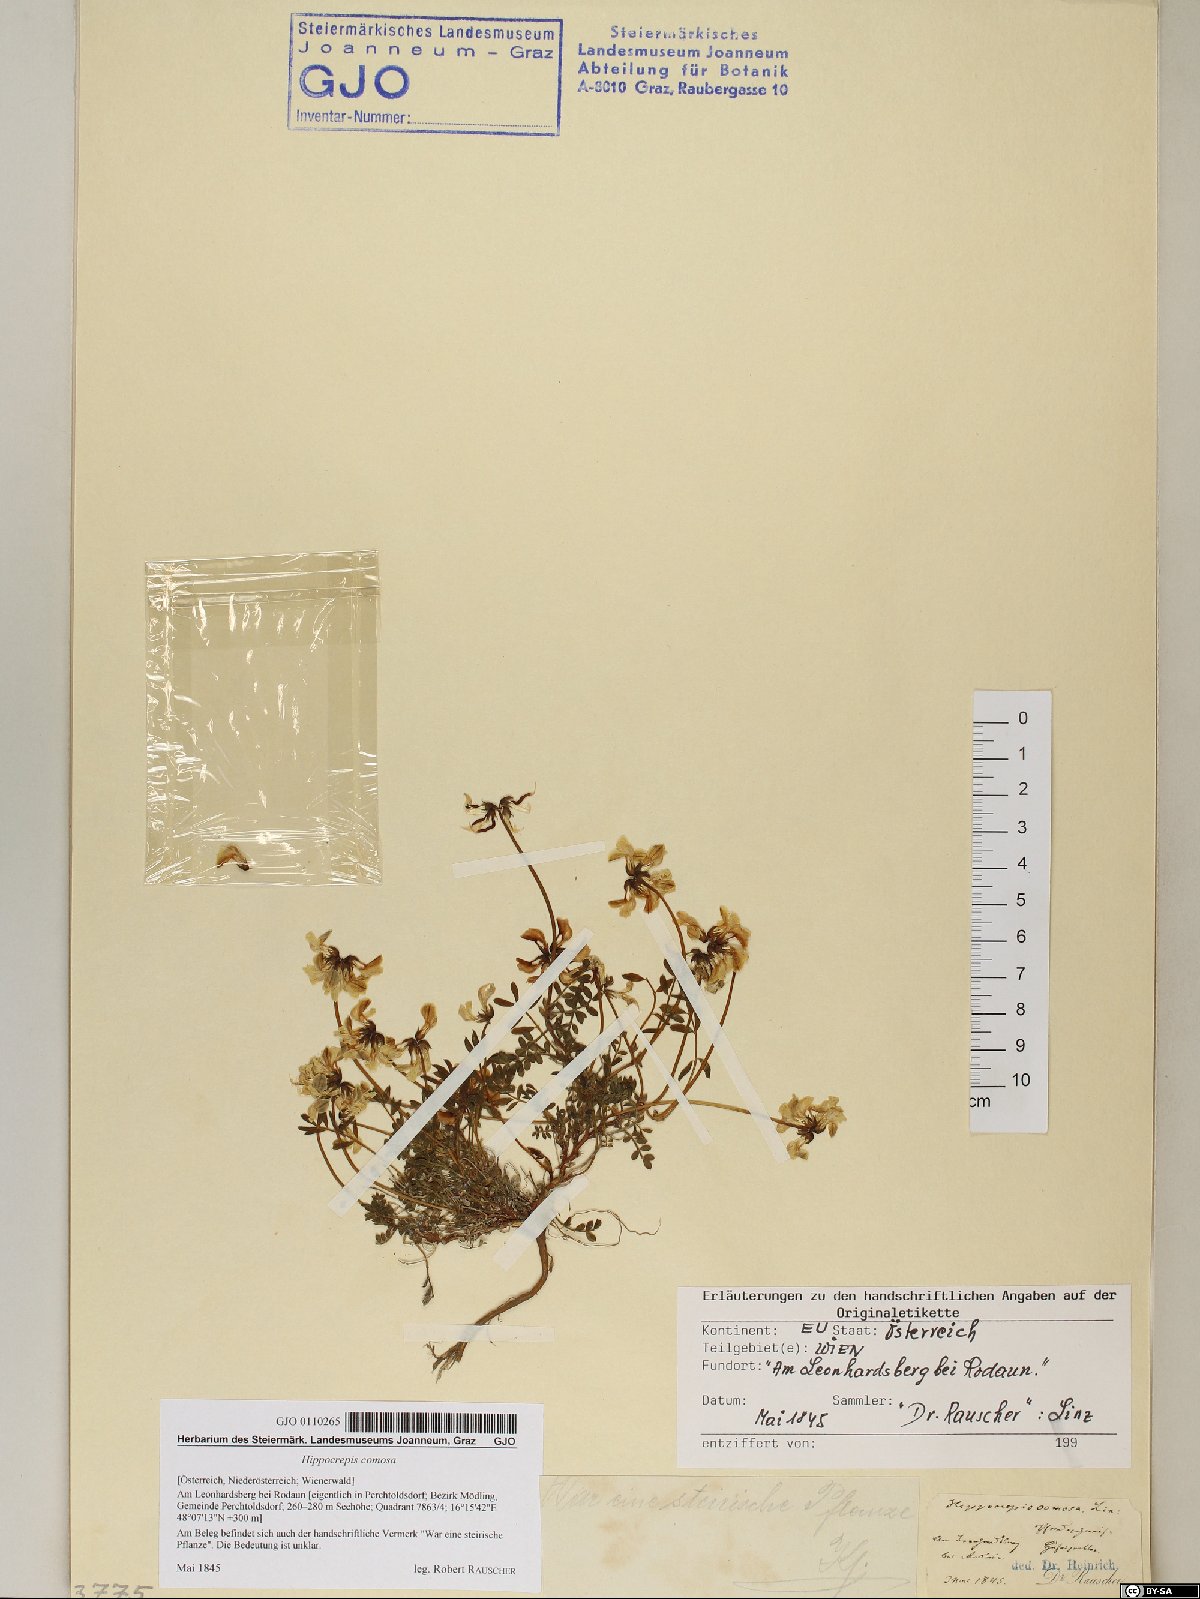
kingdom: Plantae
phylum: Tracheophyta
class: Magnoliopsida
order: Fabales
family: Fabaceae
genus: Hippocrepis
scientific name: Hippocrepis comosa
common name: Horseshoe vetch
